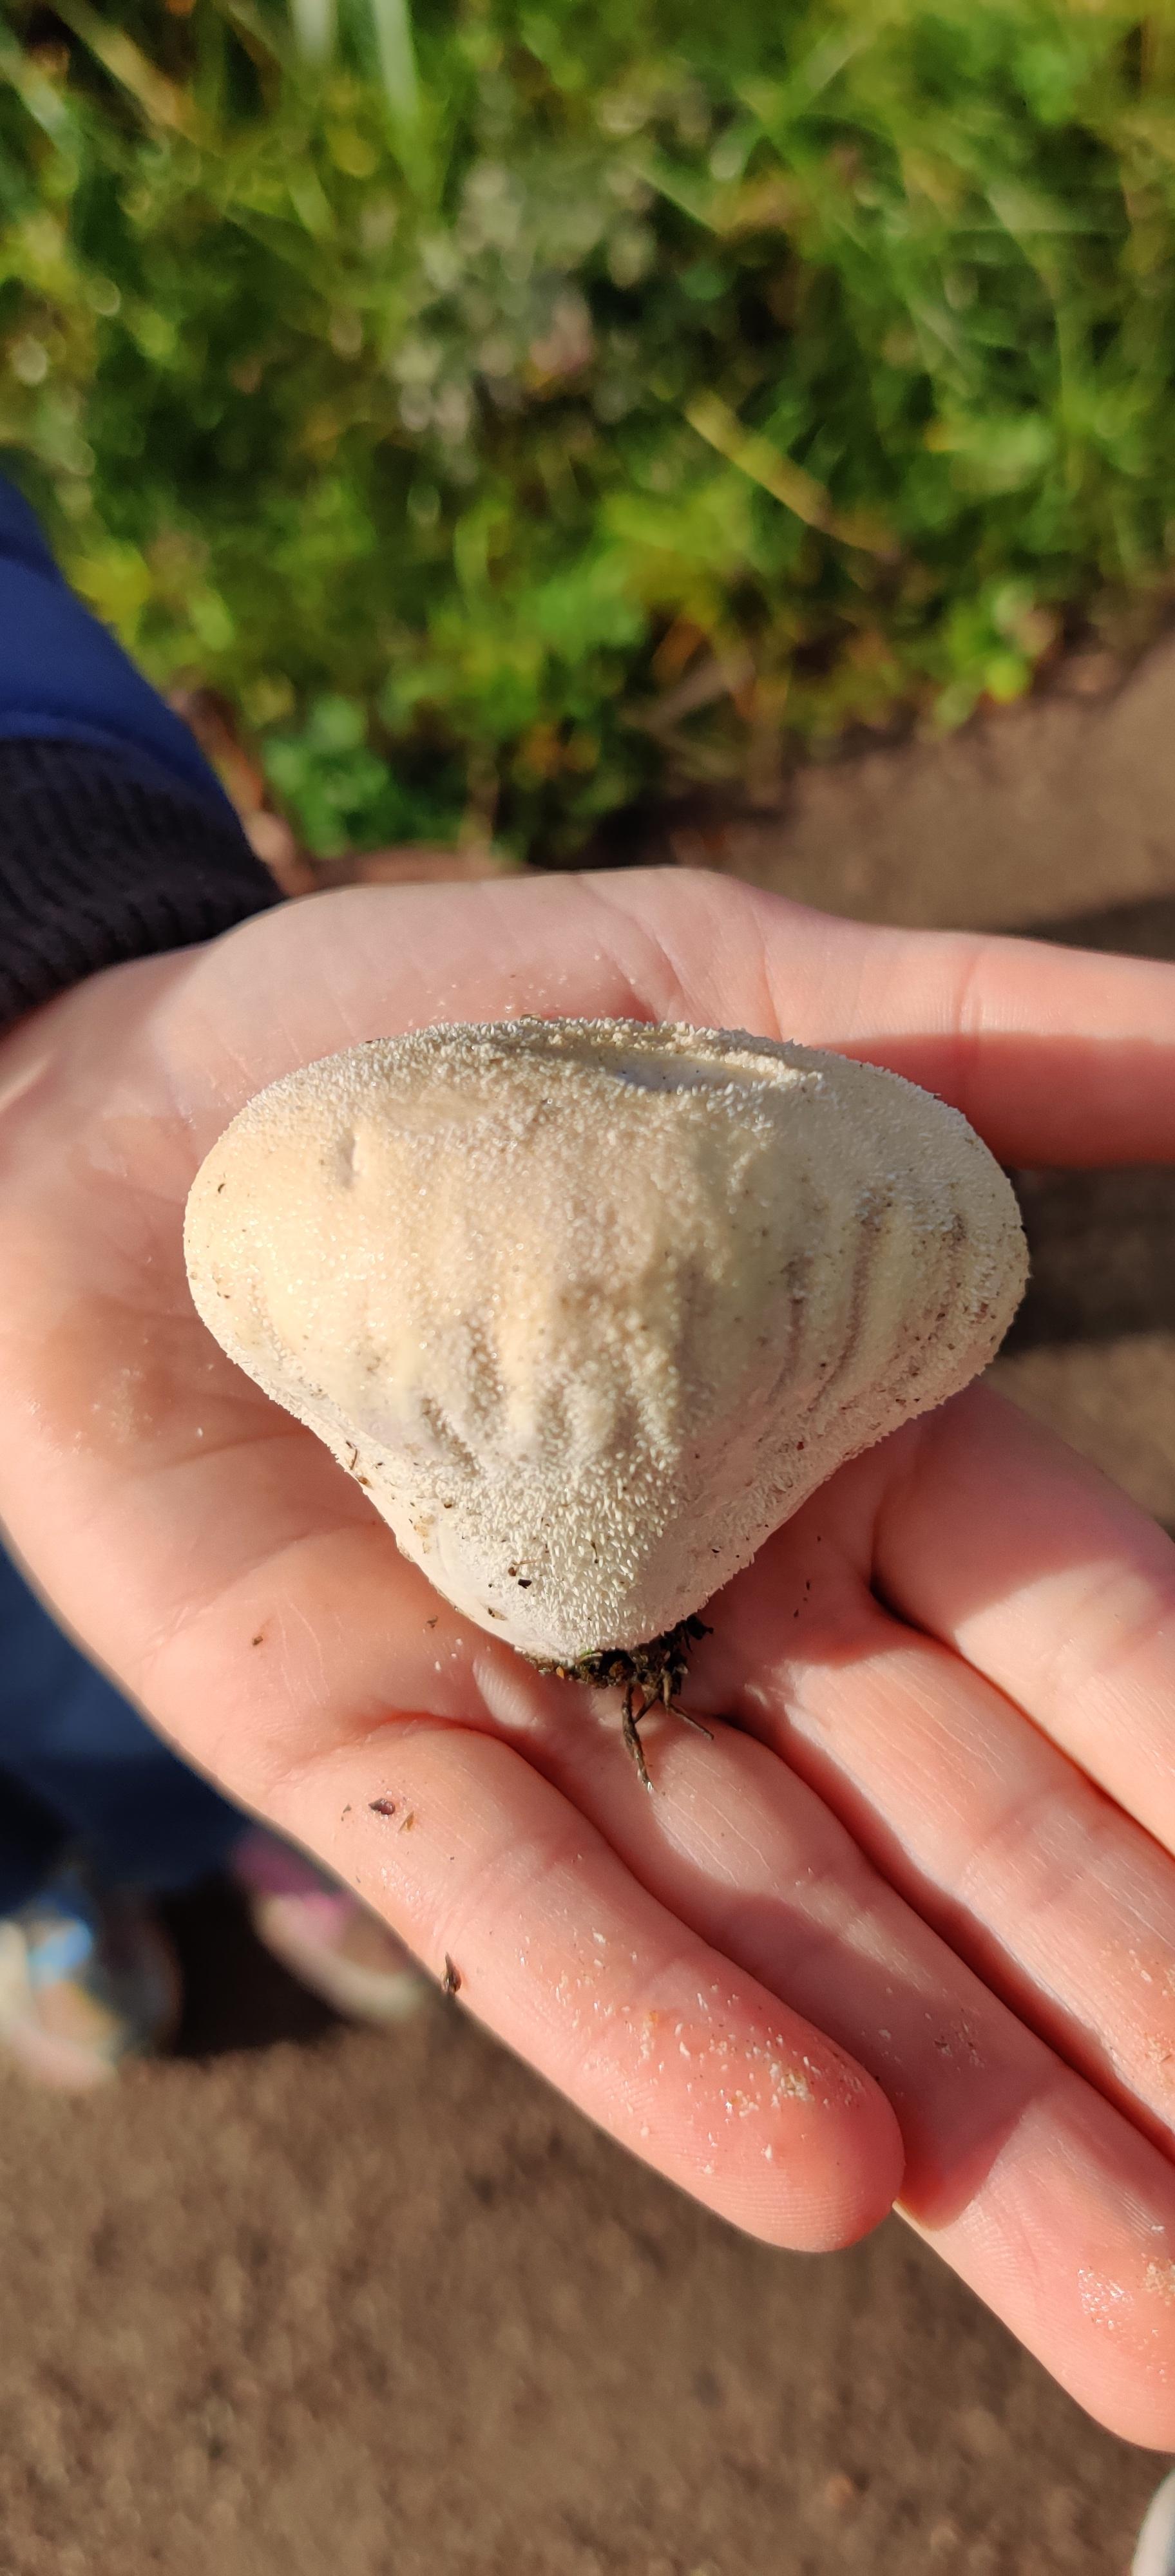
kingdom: Fungi
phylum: Basidiomycota
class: Agaricomycetes
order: Agaricales
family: Lycoperdaceae
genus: Lycoperdon
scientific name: Lycoperdon pratense
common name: flad støvbold
